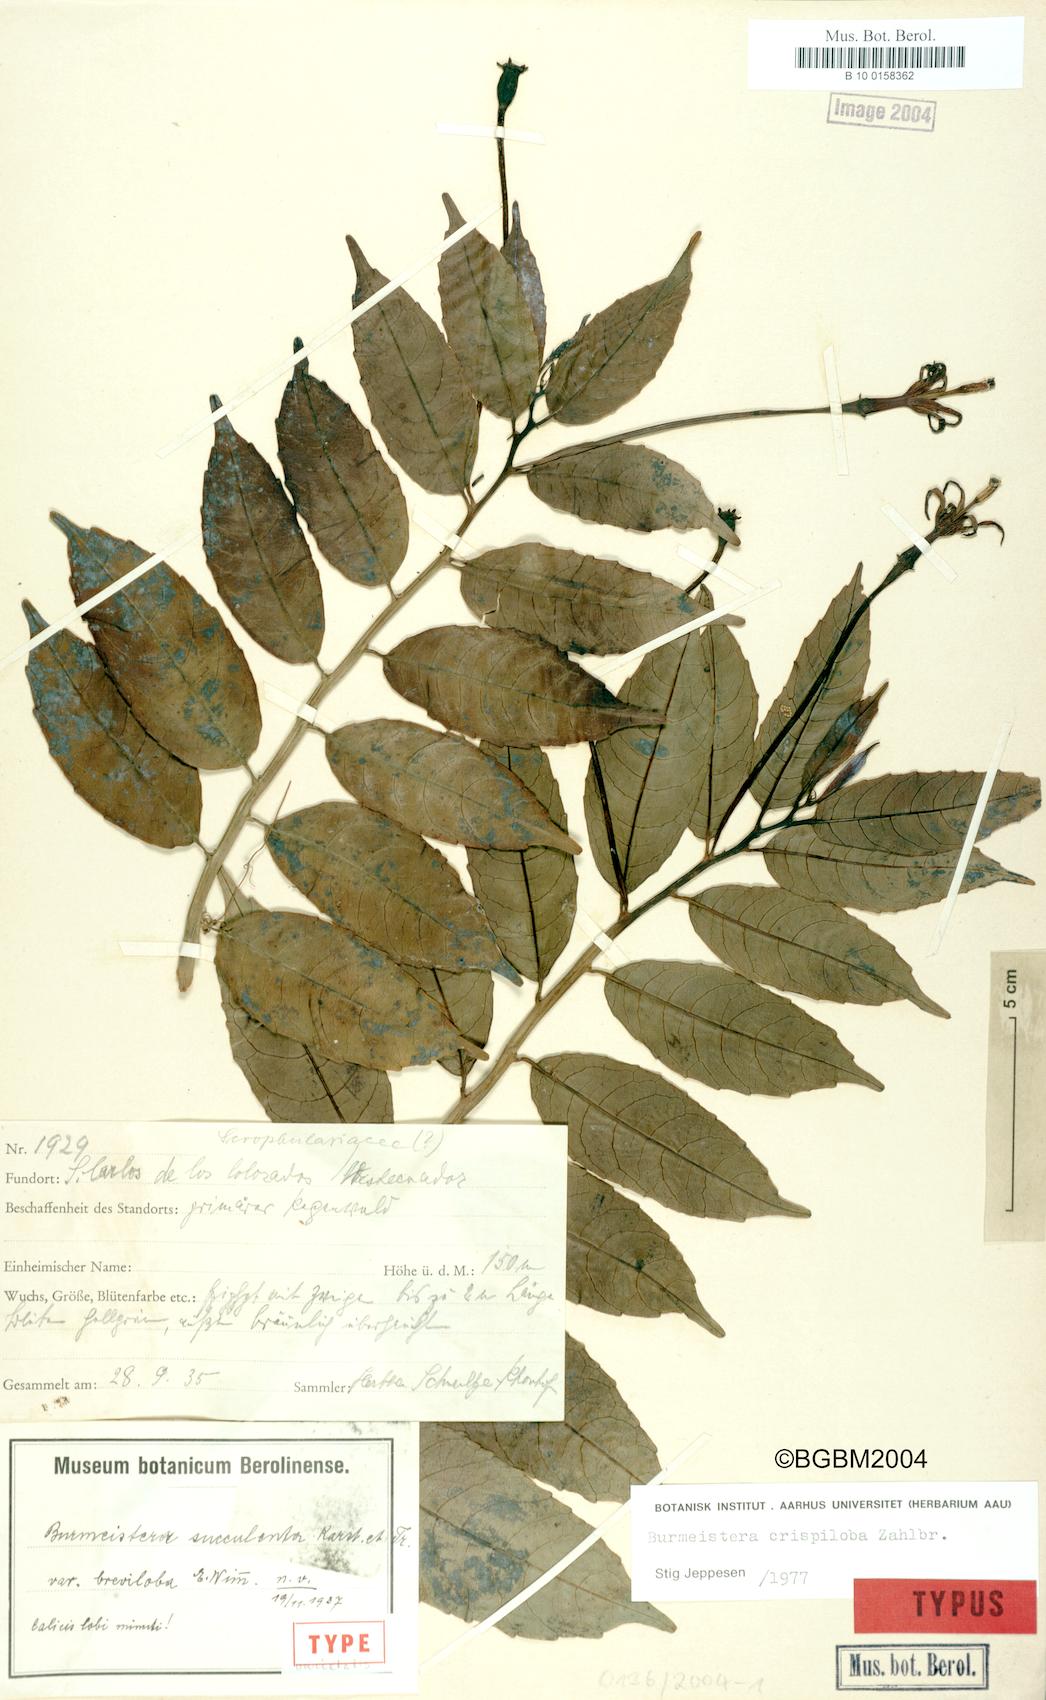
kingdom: Plantae
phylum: Tracheophyta
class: Magnoliopsida
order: Asterales
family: Campanulaceae
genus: Burmeistera
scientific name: Burmeistera crispiloba
